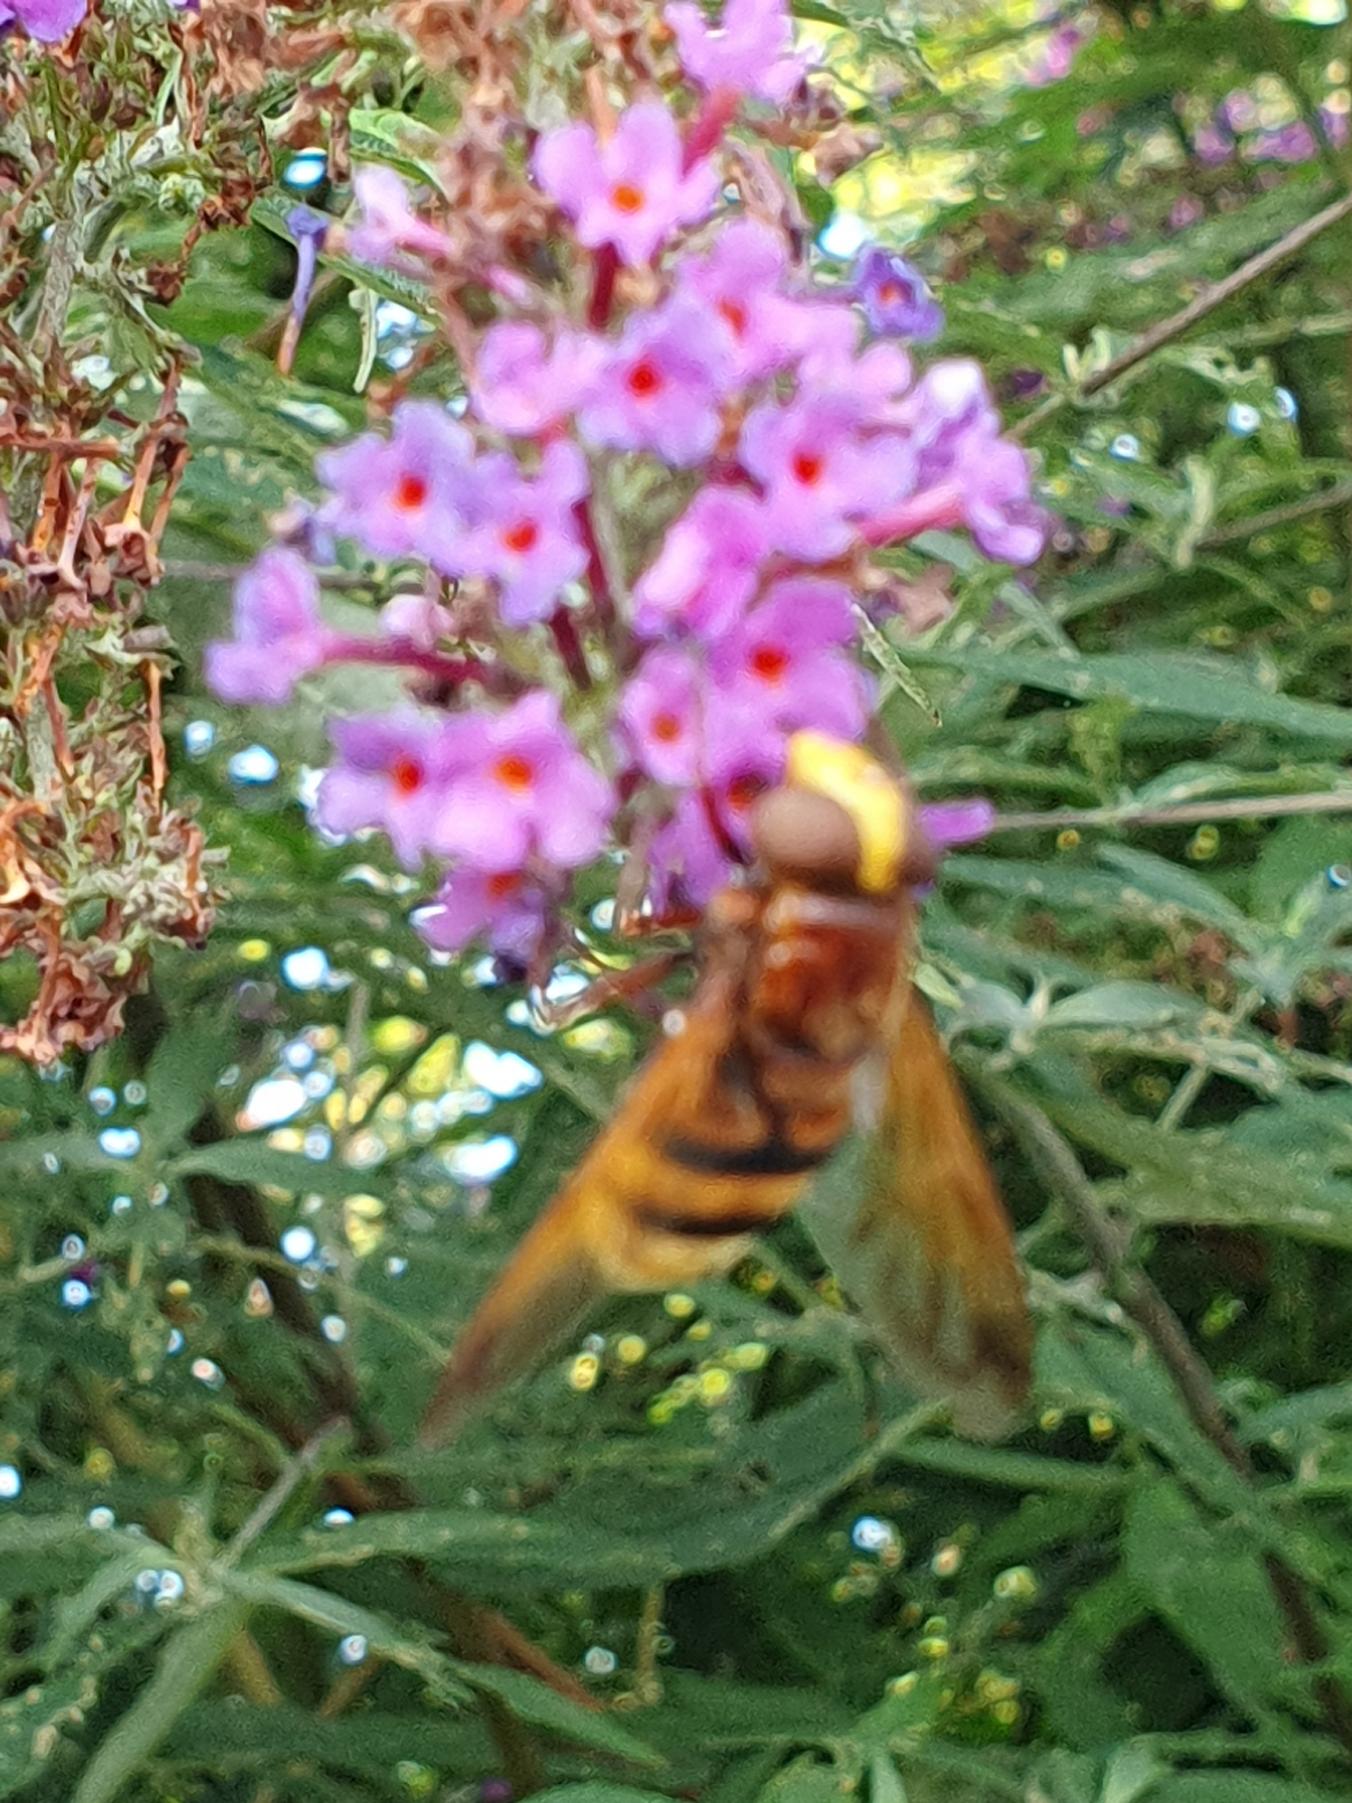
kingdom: Animalia
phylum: Arthropoda
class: Insecta
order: Diptera
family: Syrphidae
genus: Volucella
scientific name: Volucella zonaria
